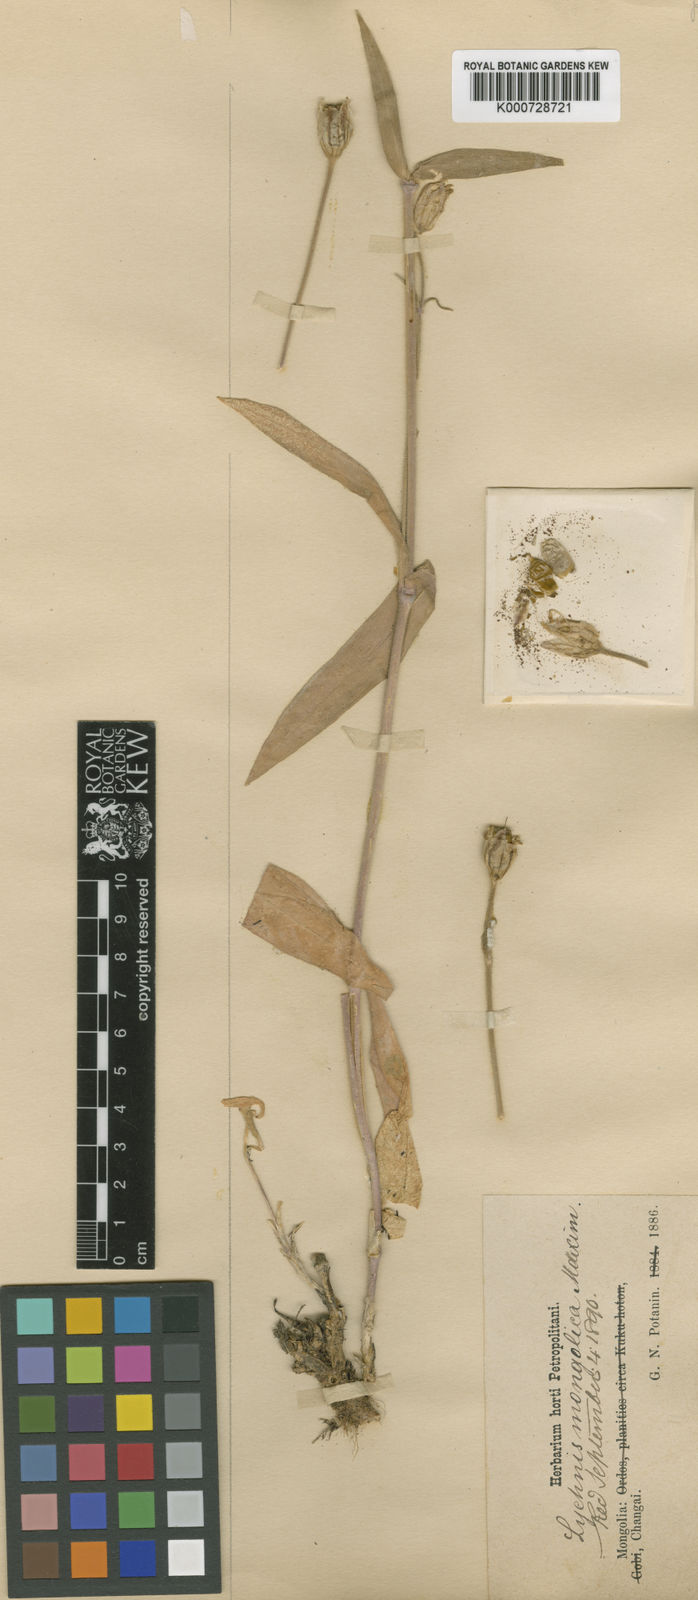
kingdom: Plantae
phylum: Tracheophyta
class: Magnoliopsida
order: Caryophyllales
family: Caryophyllaceae
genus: Silene
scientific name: Silene
